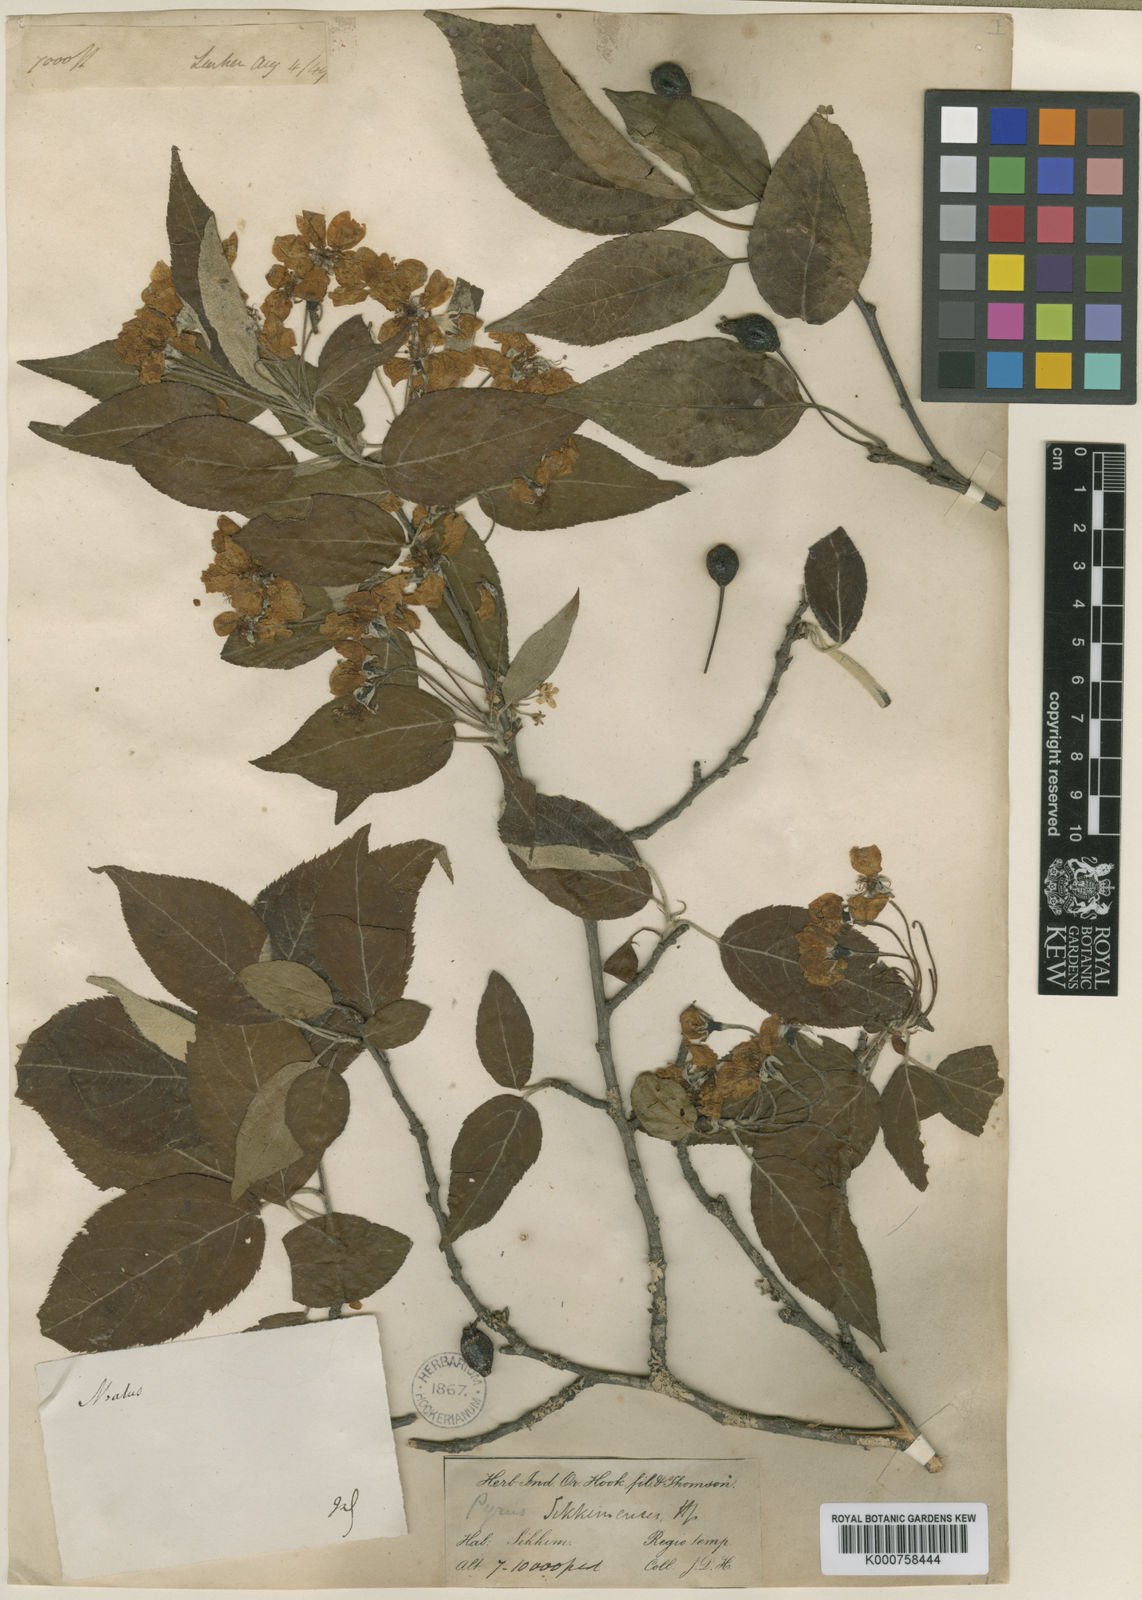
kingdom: Plantae
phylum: Tracheophyta
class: Magnoliopsida
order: Rosales
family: Rosaceae
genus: Malus
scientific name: Malus sikkimensis
